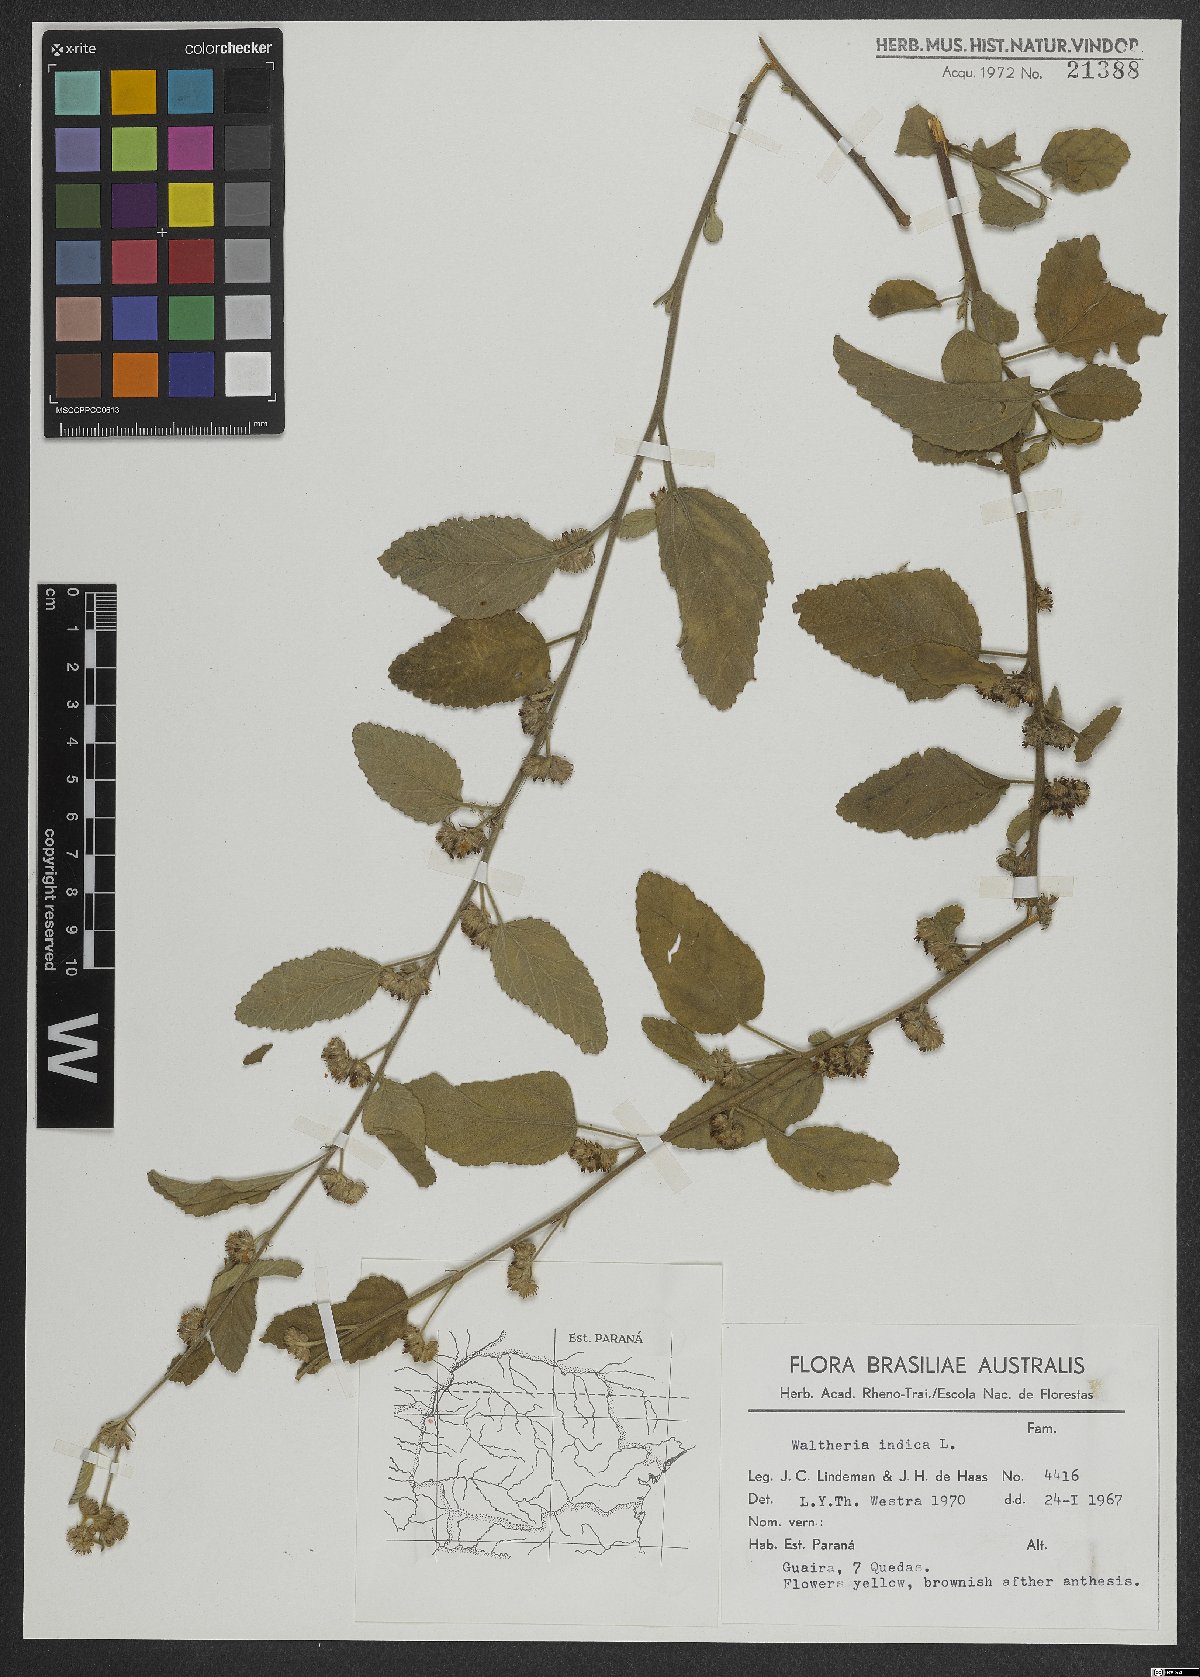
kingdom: Plantae
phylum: Tracheophyta
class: Magnoliopsida
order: Malvales
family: Malvaceae
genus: Waltheria
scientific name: Waltheria indica
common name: Leather-coat
